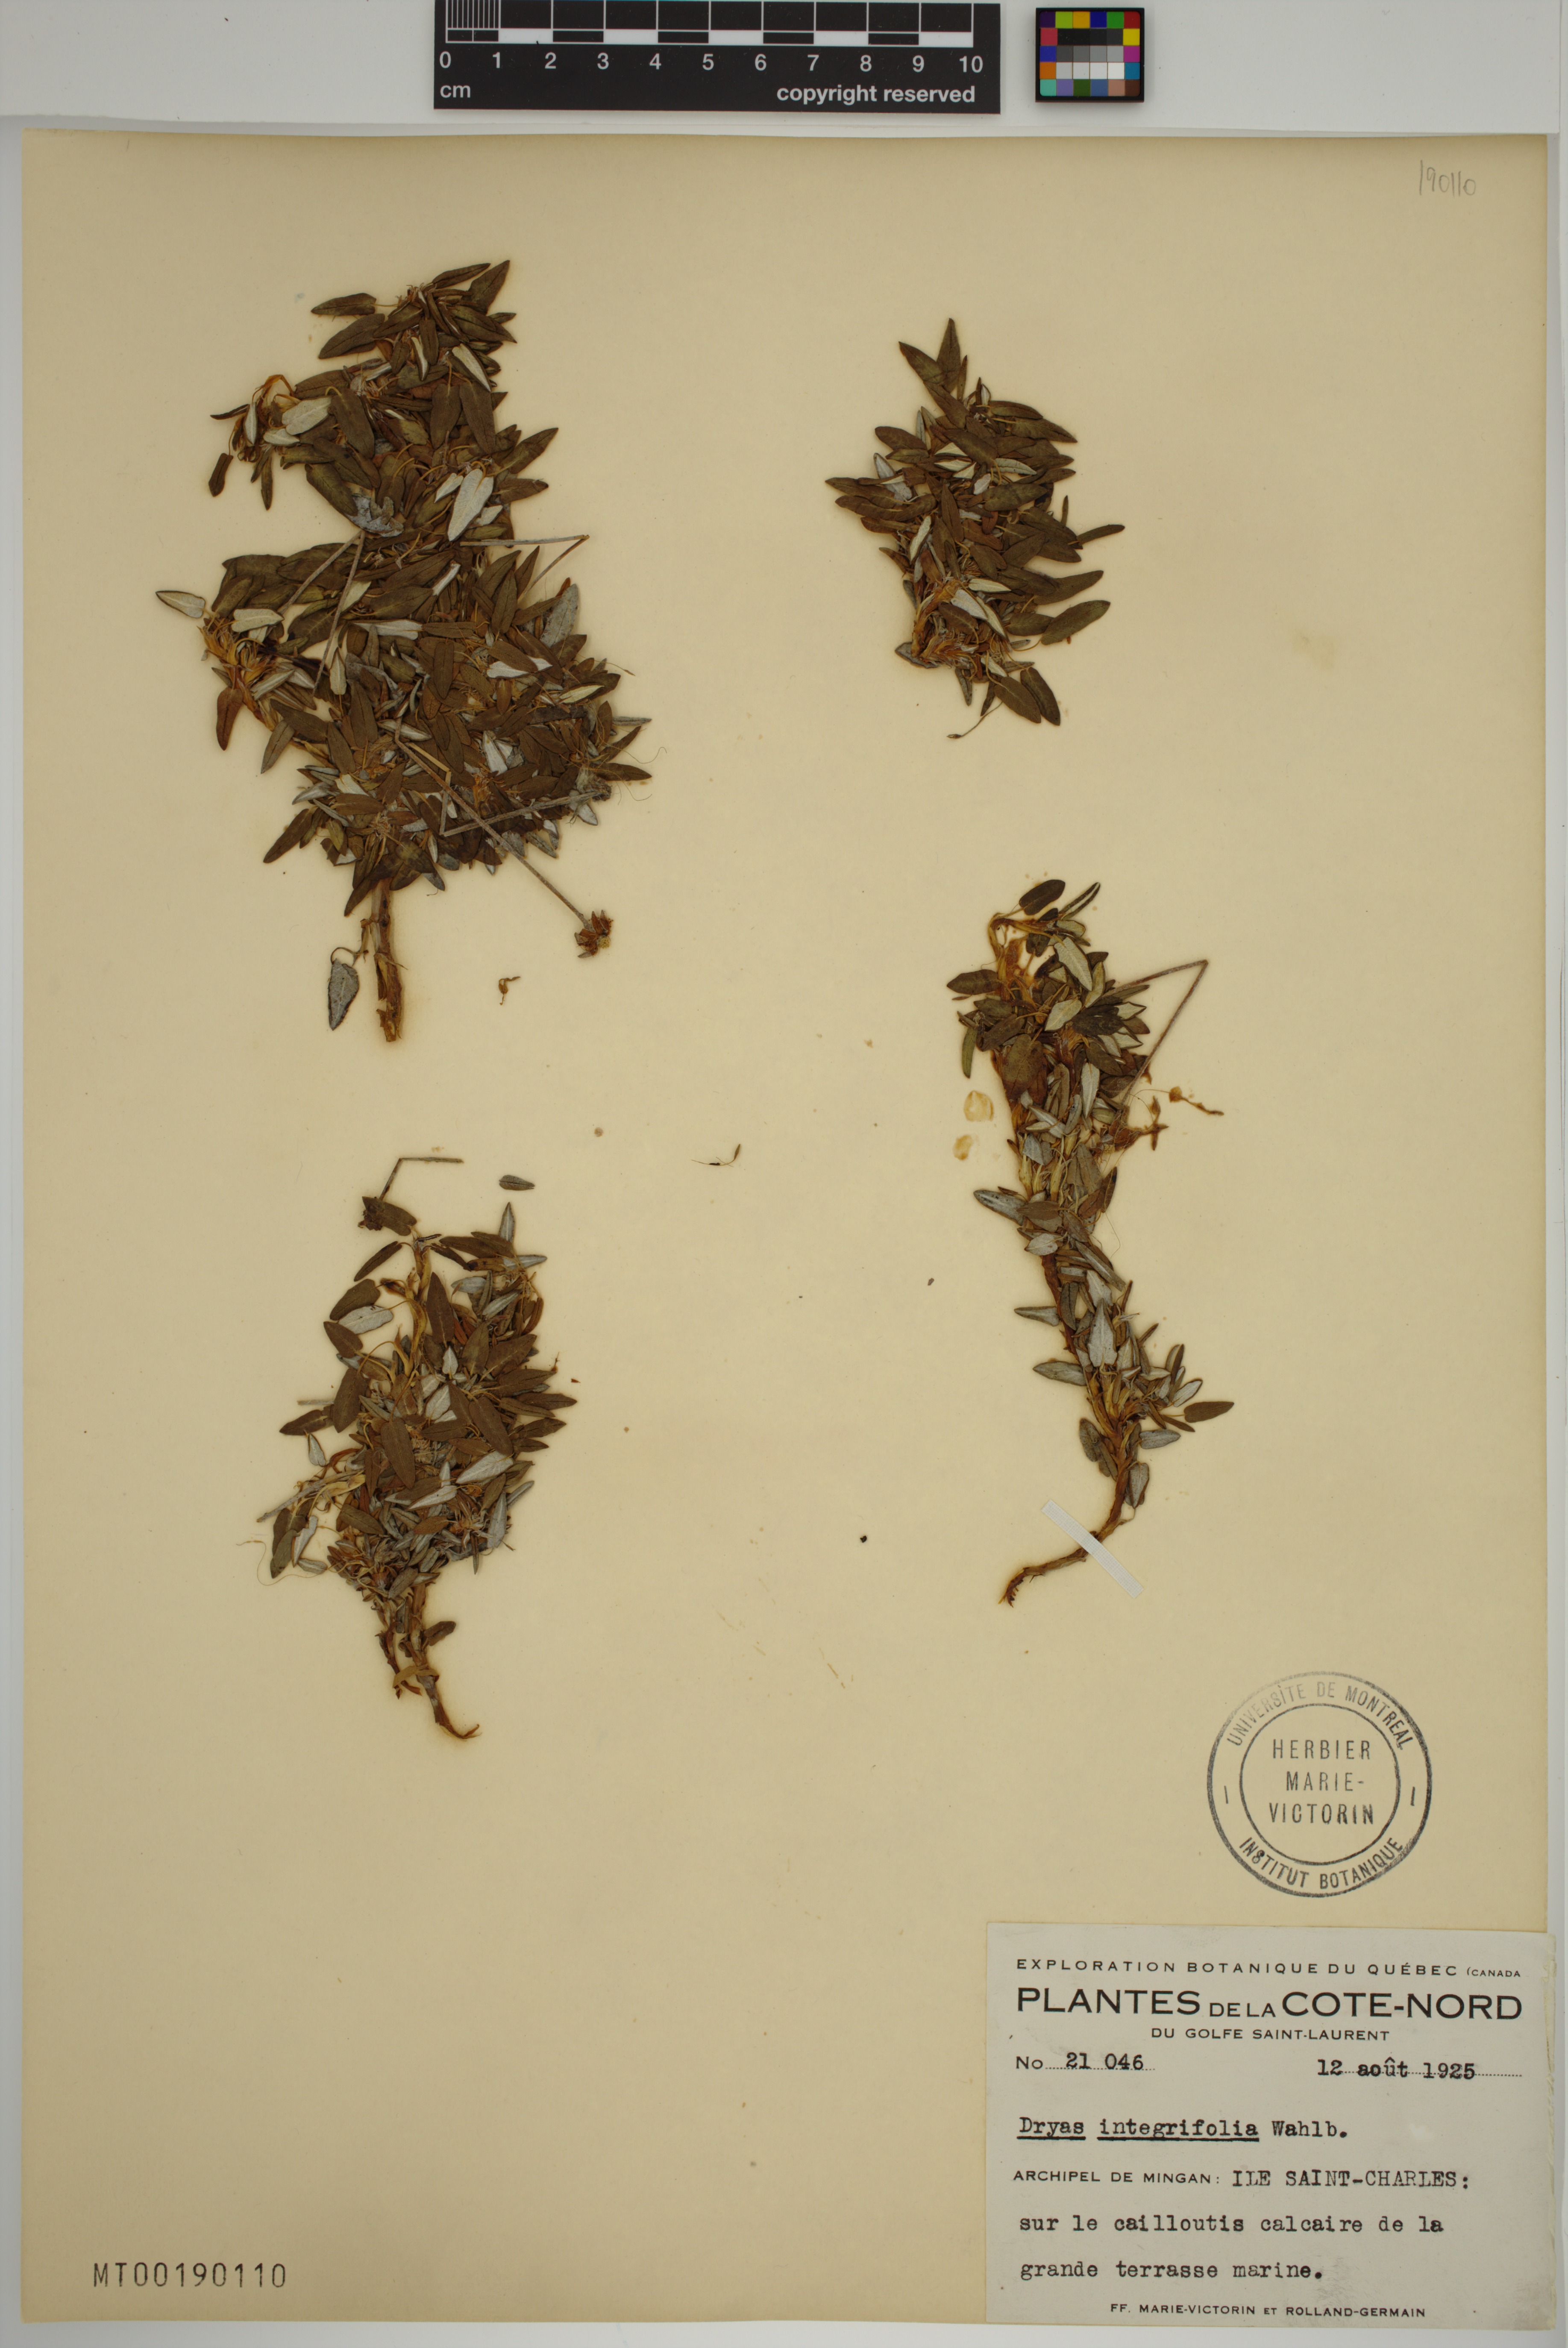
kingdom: Plantae
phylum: Tracheophyta
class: Magnoliopsida
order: Rosales
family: Rosaceae
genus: Dryas
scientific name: Dryas integrifolia
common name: Entire-leaved mountain avens
